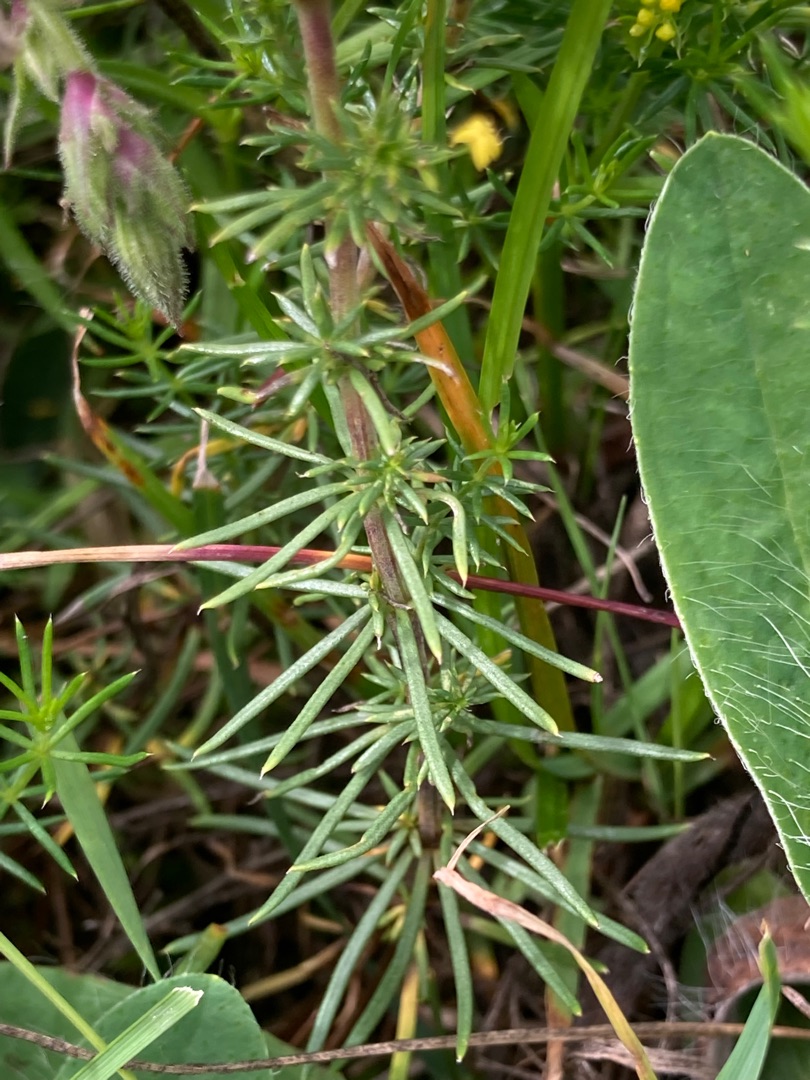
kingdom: Plantae
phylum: Tracheophyta
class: Magnoliopsida
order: Gentianales
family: Rubiaceae
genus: Galium
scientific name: Galium verum
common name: Gul snerre
